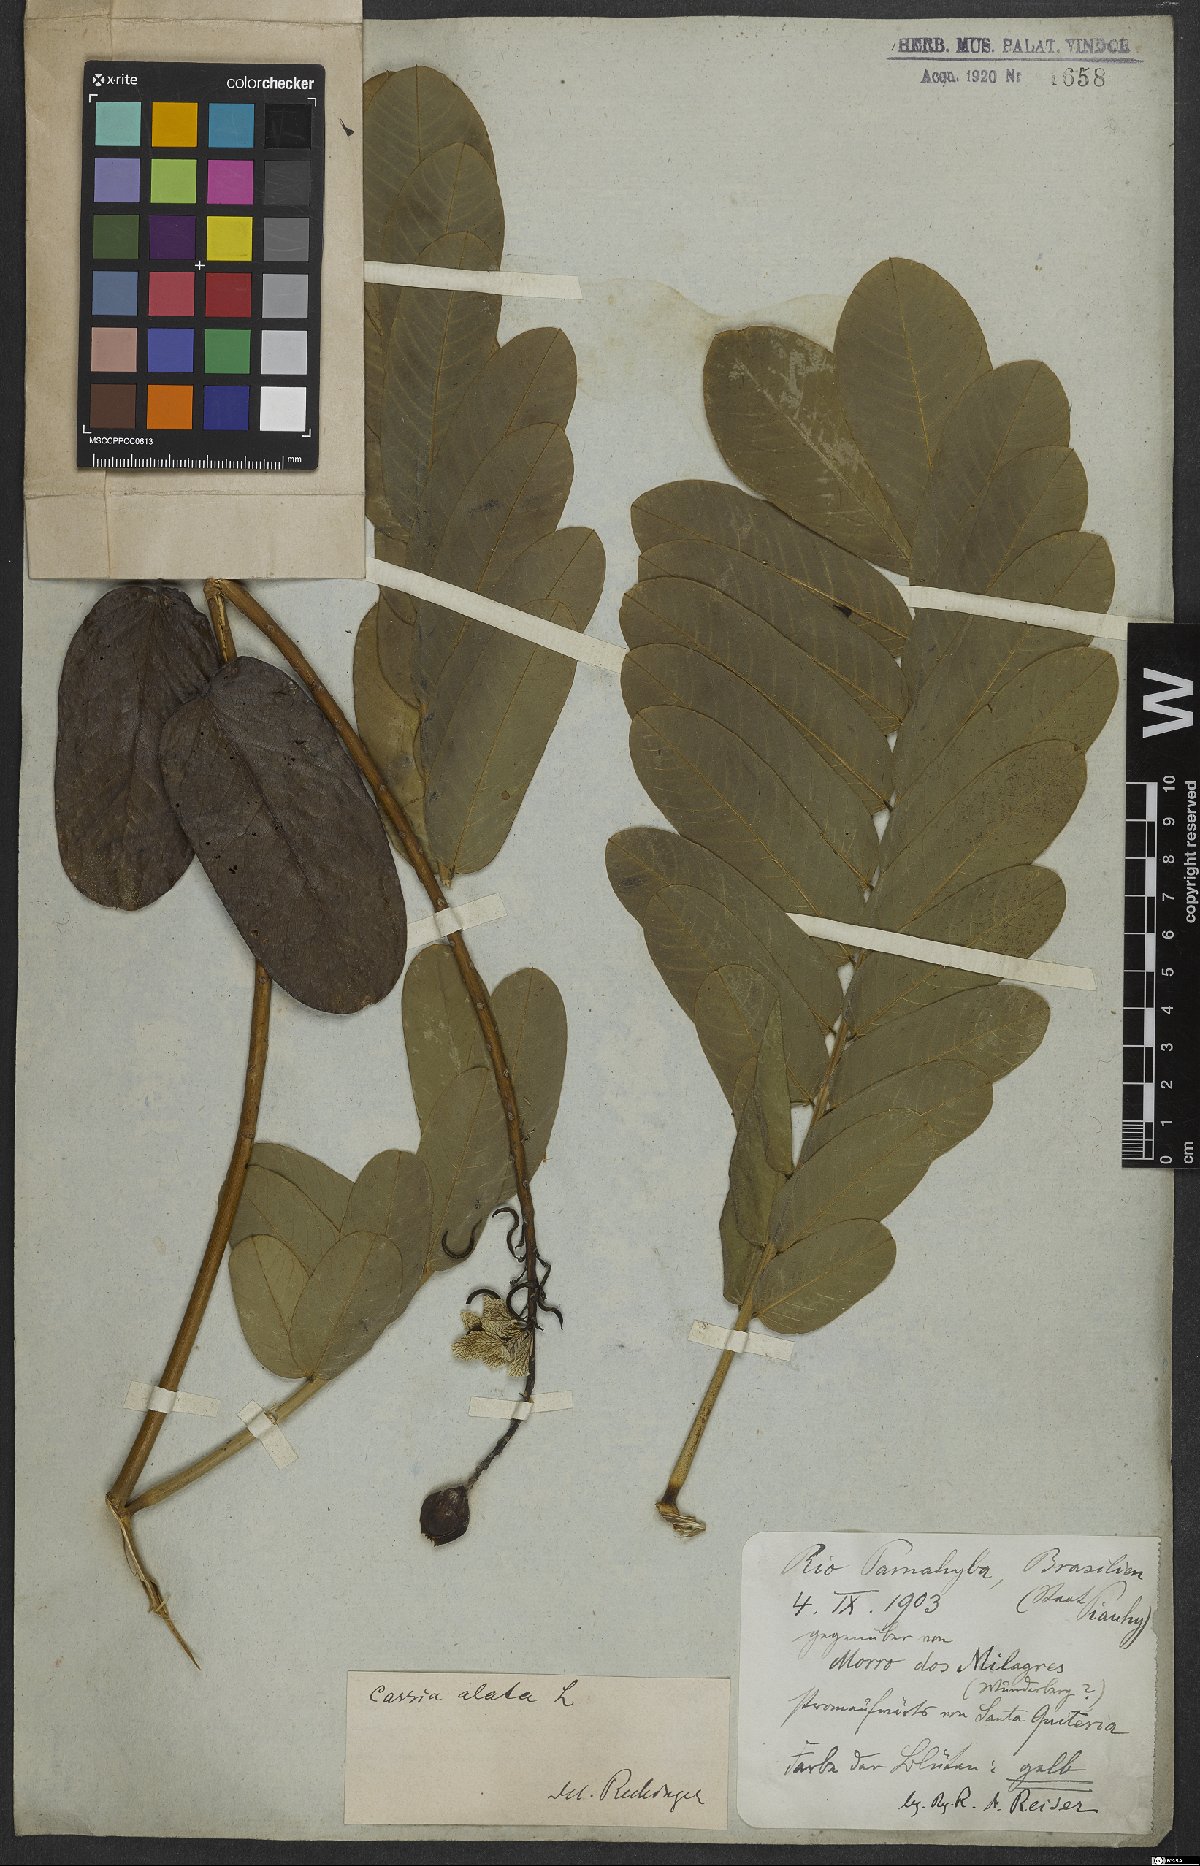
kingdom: Plantae
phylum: Tracheophyta
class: Magnoliopsida
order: Fabales
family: Fabaceae
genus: Senna
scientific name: Senna alata
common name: Emperor's candlesticks
